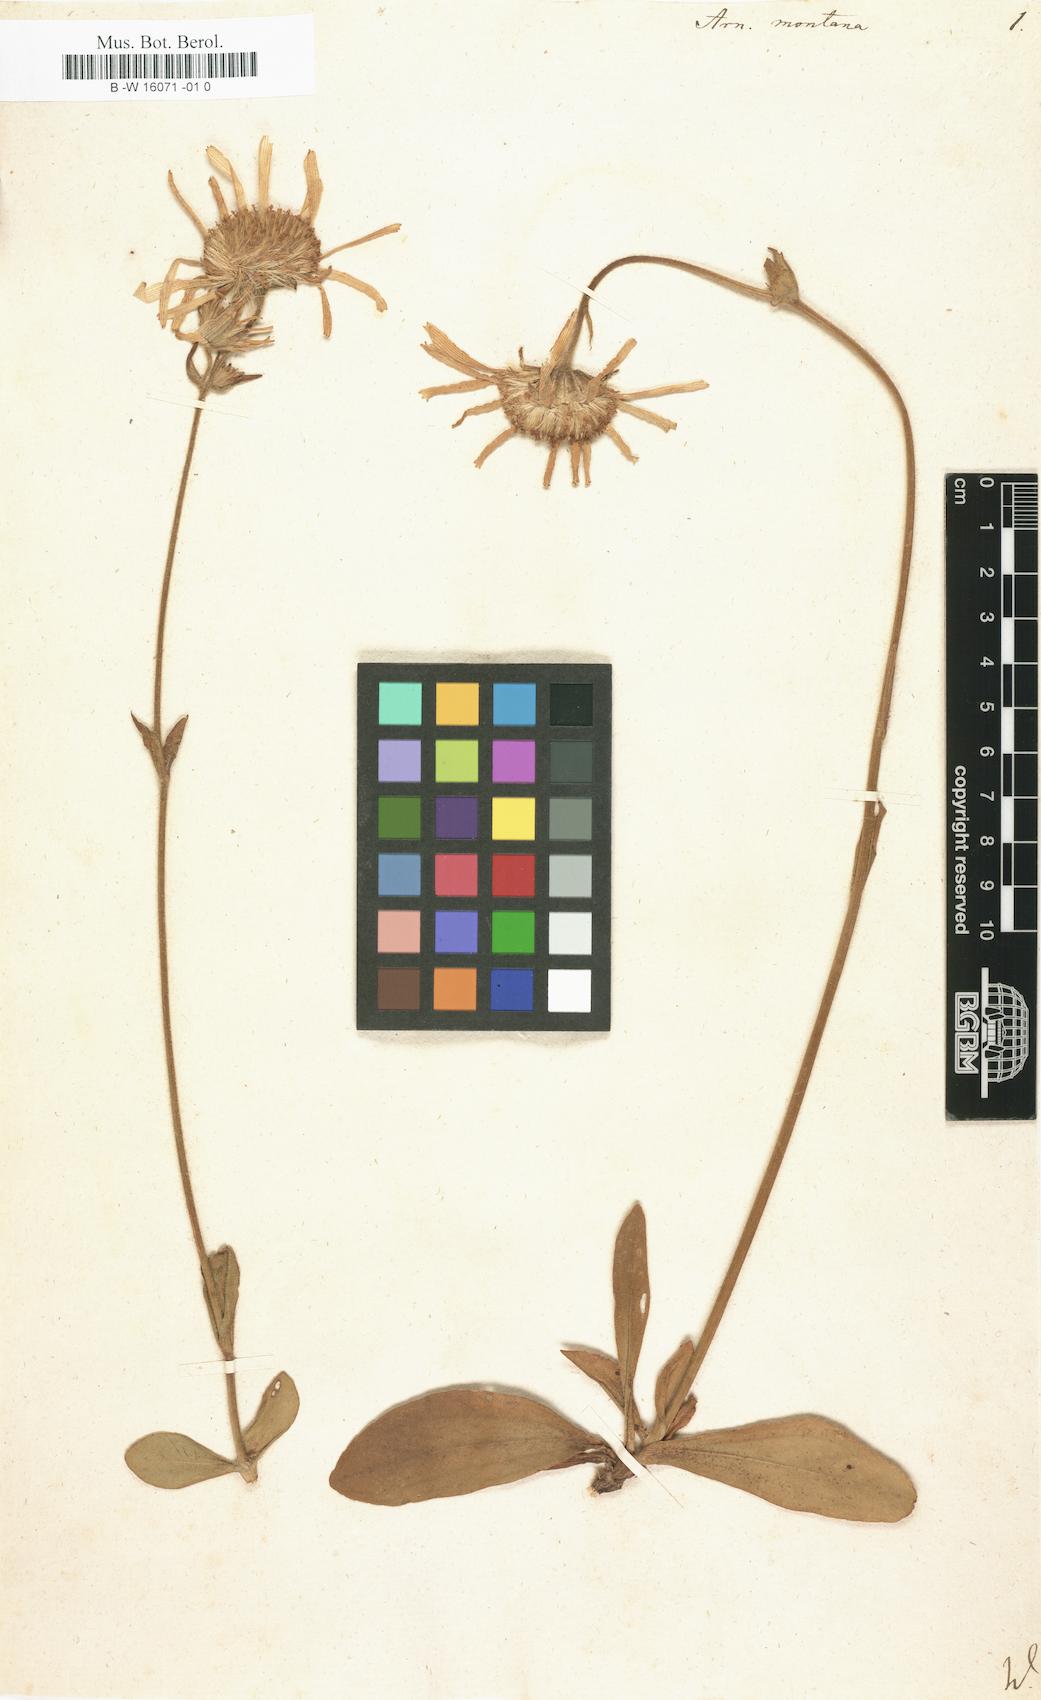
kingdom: Plantae
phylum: Tracheophyta
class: Magnoliopsida
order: Asterales
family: Asteraceae
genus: Arnica
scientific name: Arnica montana
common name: Leopard's bane
